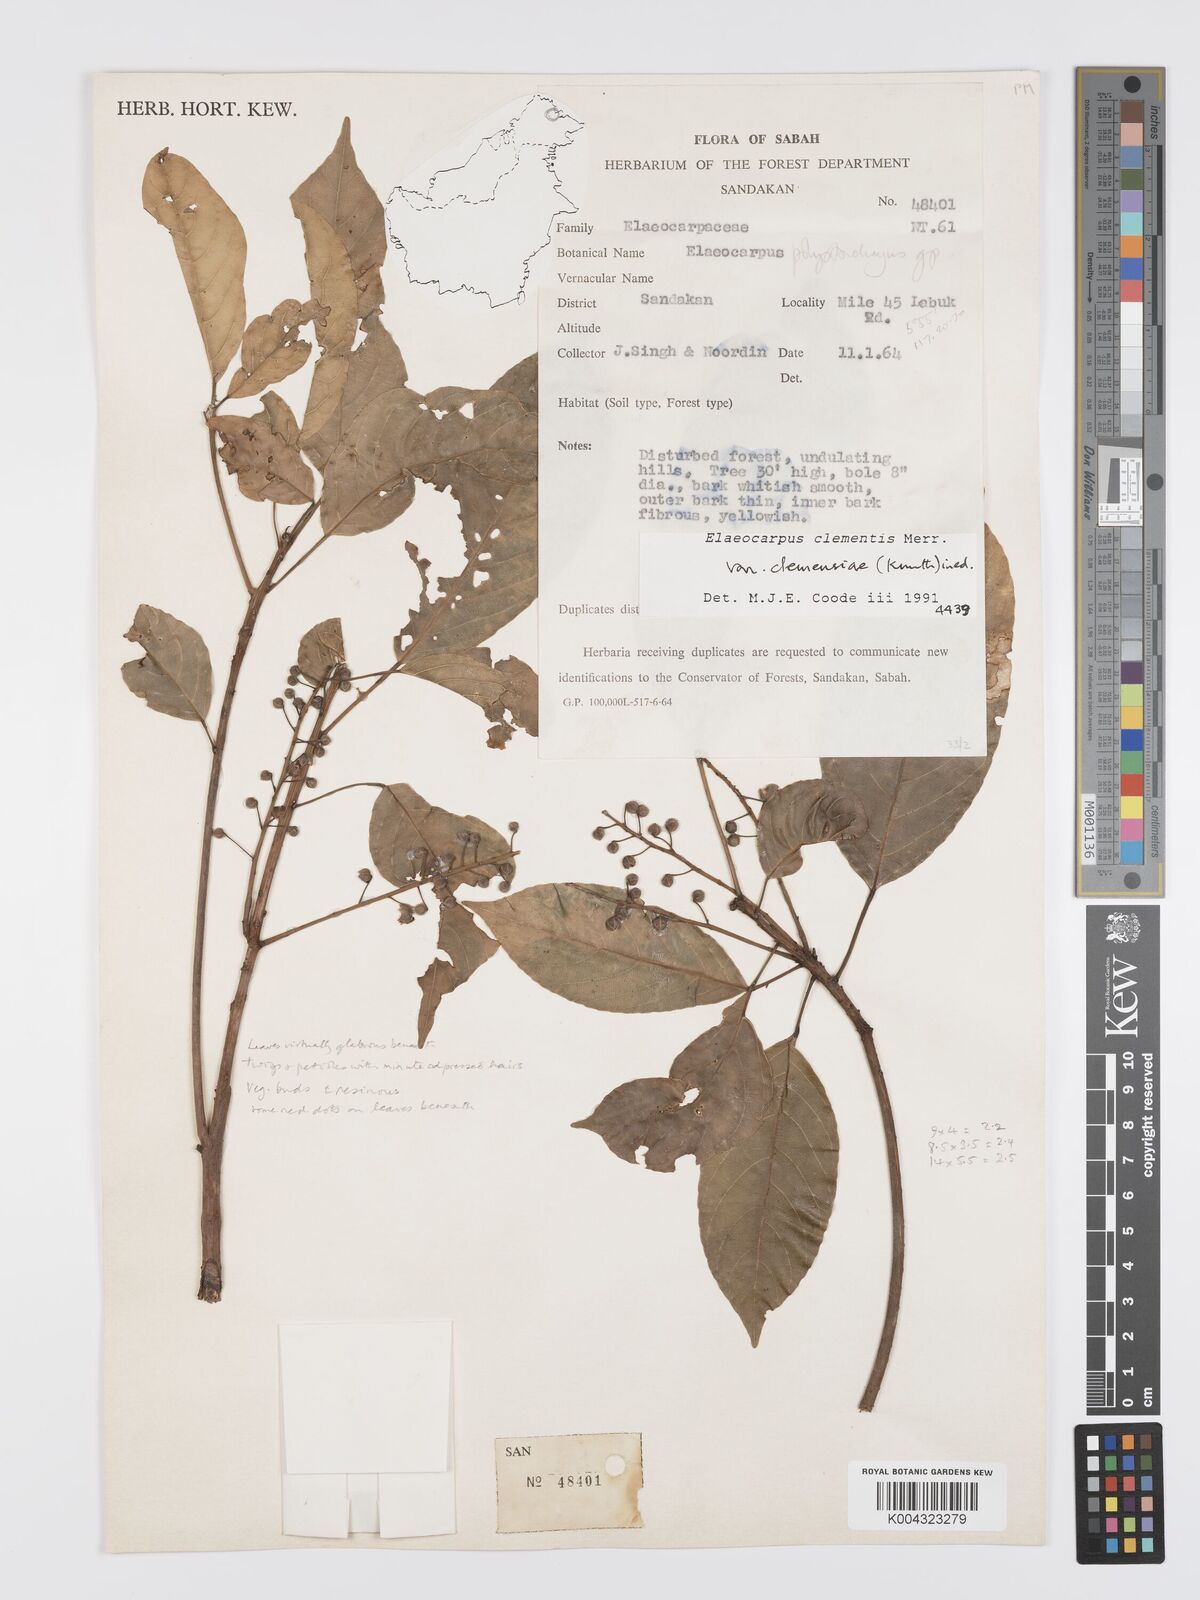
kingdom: Plantae
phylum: Tracheophyta
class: Magnoliopsida
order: Oxalidales
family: Elaeocarpaceae
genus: Elaeocarpus
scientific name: Elaeocarpus clementis
